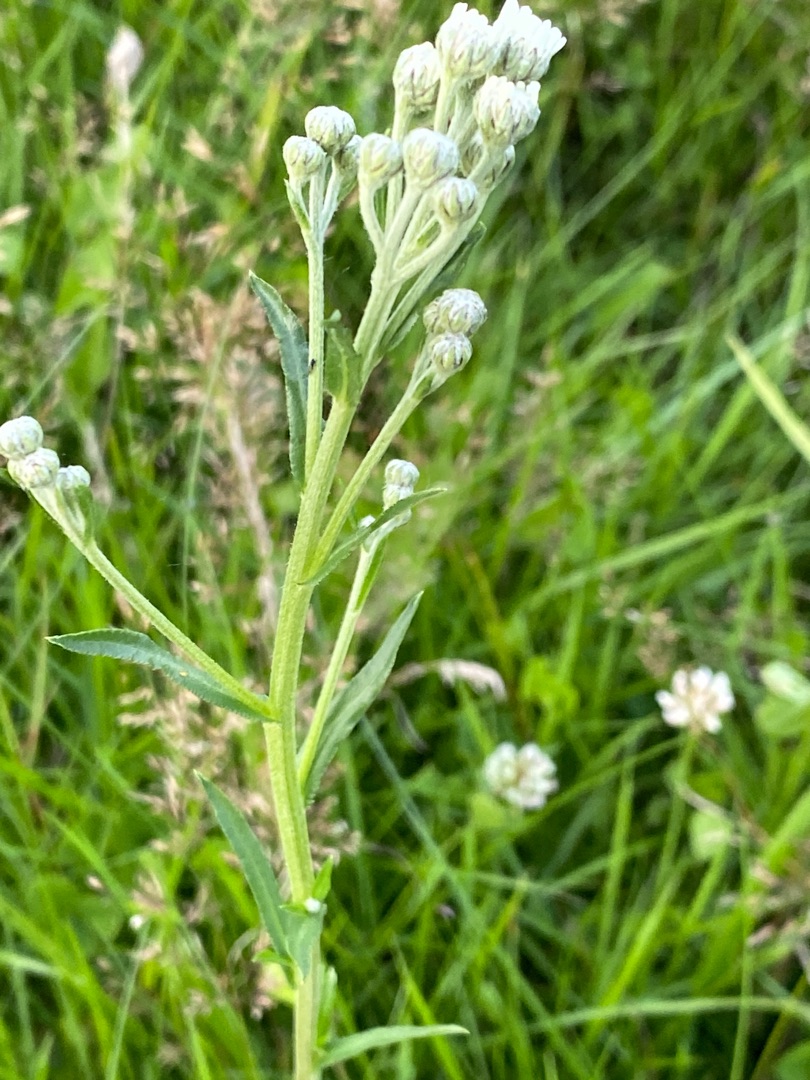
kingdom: Plantae
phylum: Tracheophyta
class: Magnoliopsida
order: Asterales
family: Asteraceae
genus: Achillea
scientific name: Achillea ptarmica
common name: Nyse-røllike
